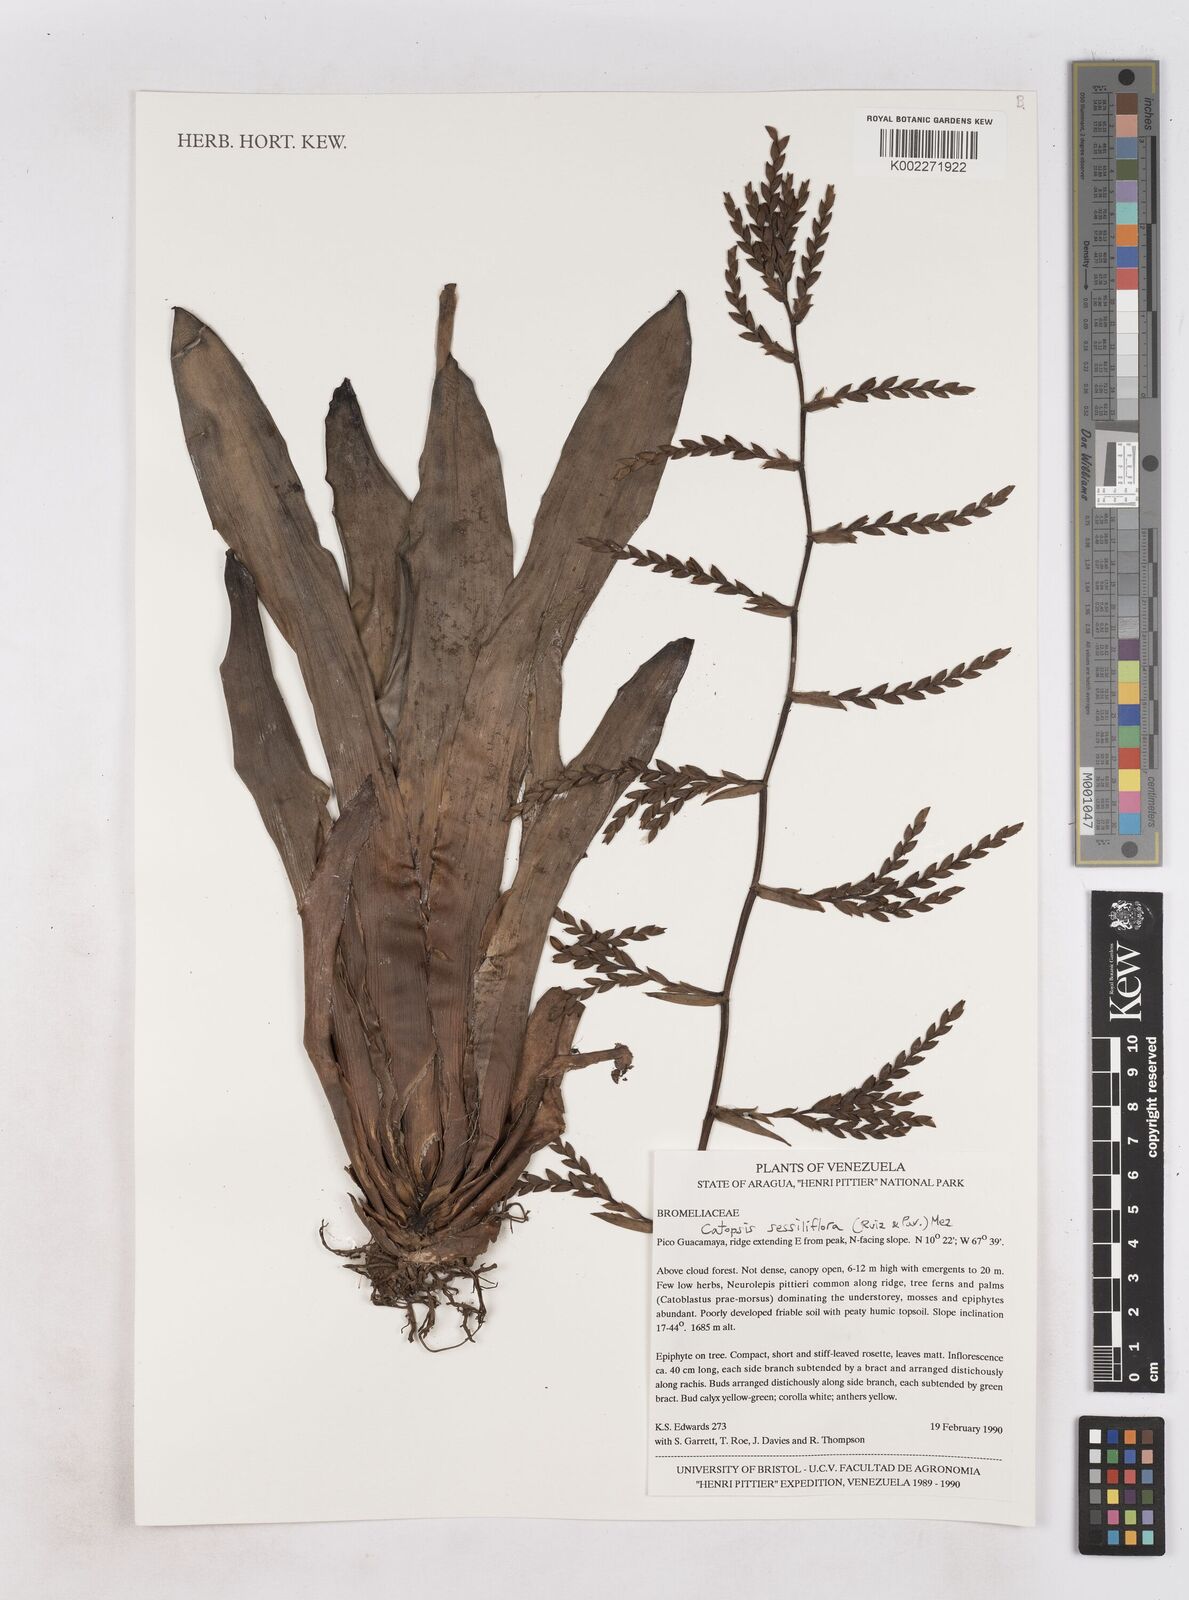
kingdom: Plantae
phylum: Tracheophyta
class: Liliopsida
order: Poales
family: Bromeliaceae
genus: Catopsis
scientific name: Catopsis sessiliflora
